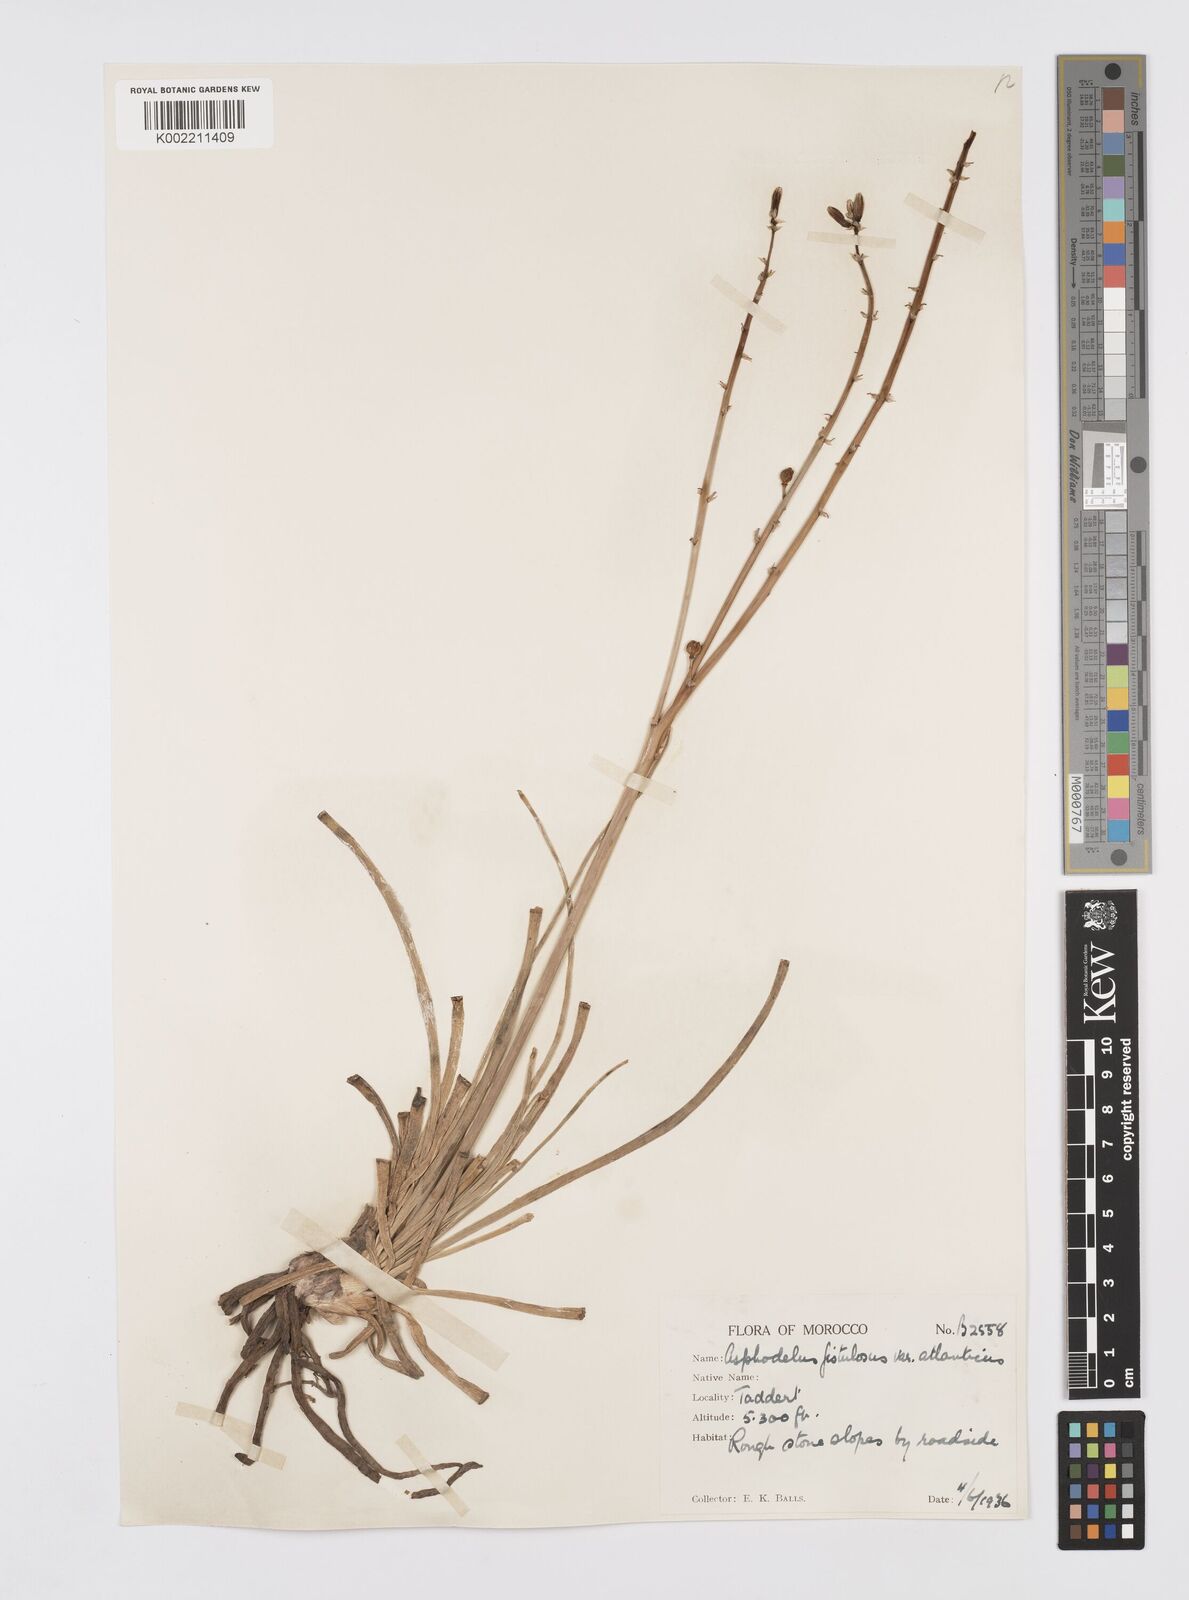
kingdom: Plantae
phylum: Tracheophyta
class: Liliopsida
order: Asparagales
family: Asphodelaceae
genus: Asphodelus
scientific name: Asphodelus fistulosus
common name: Onionweed
